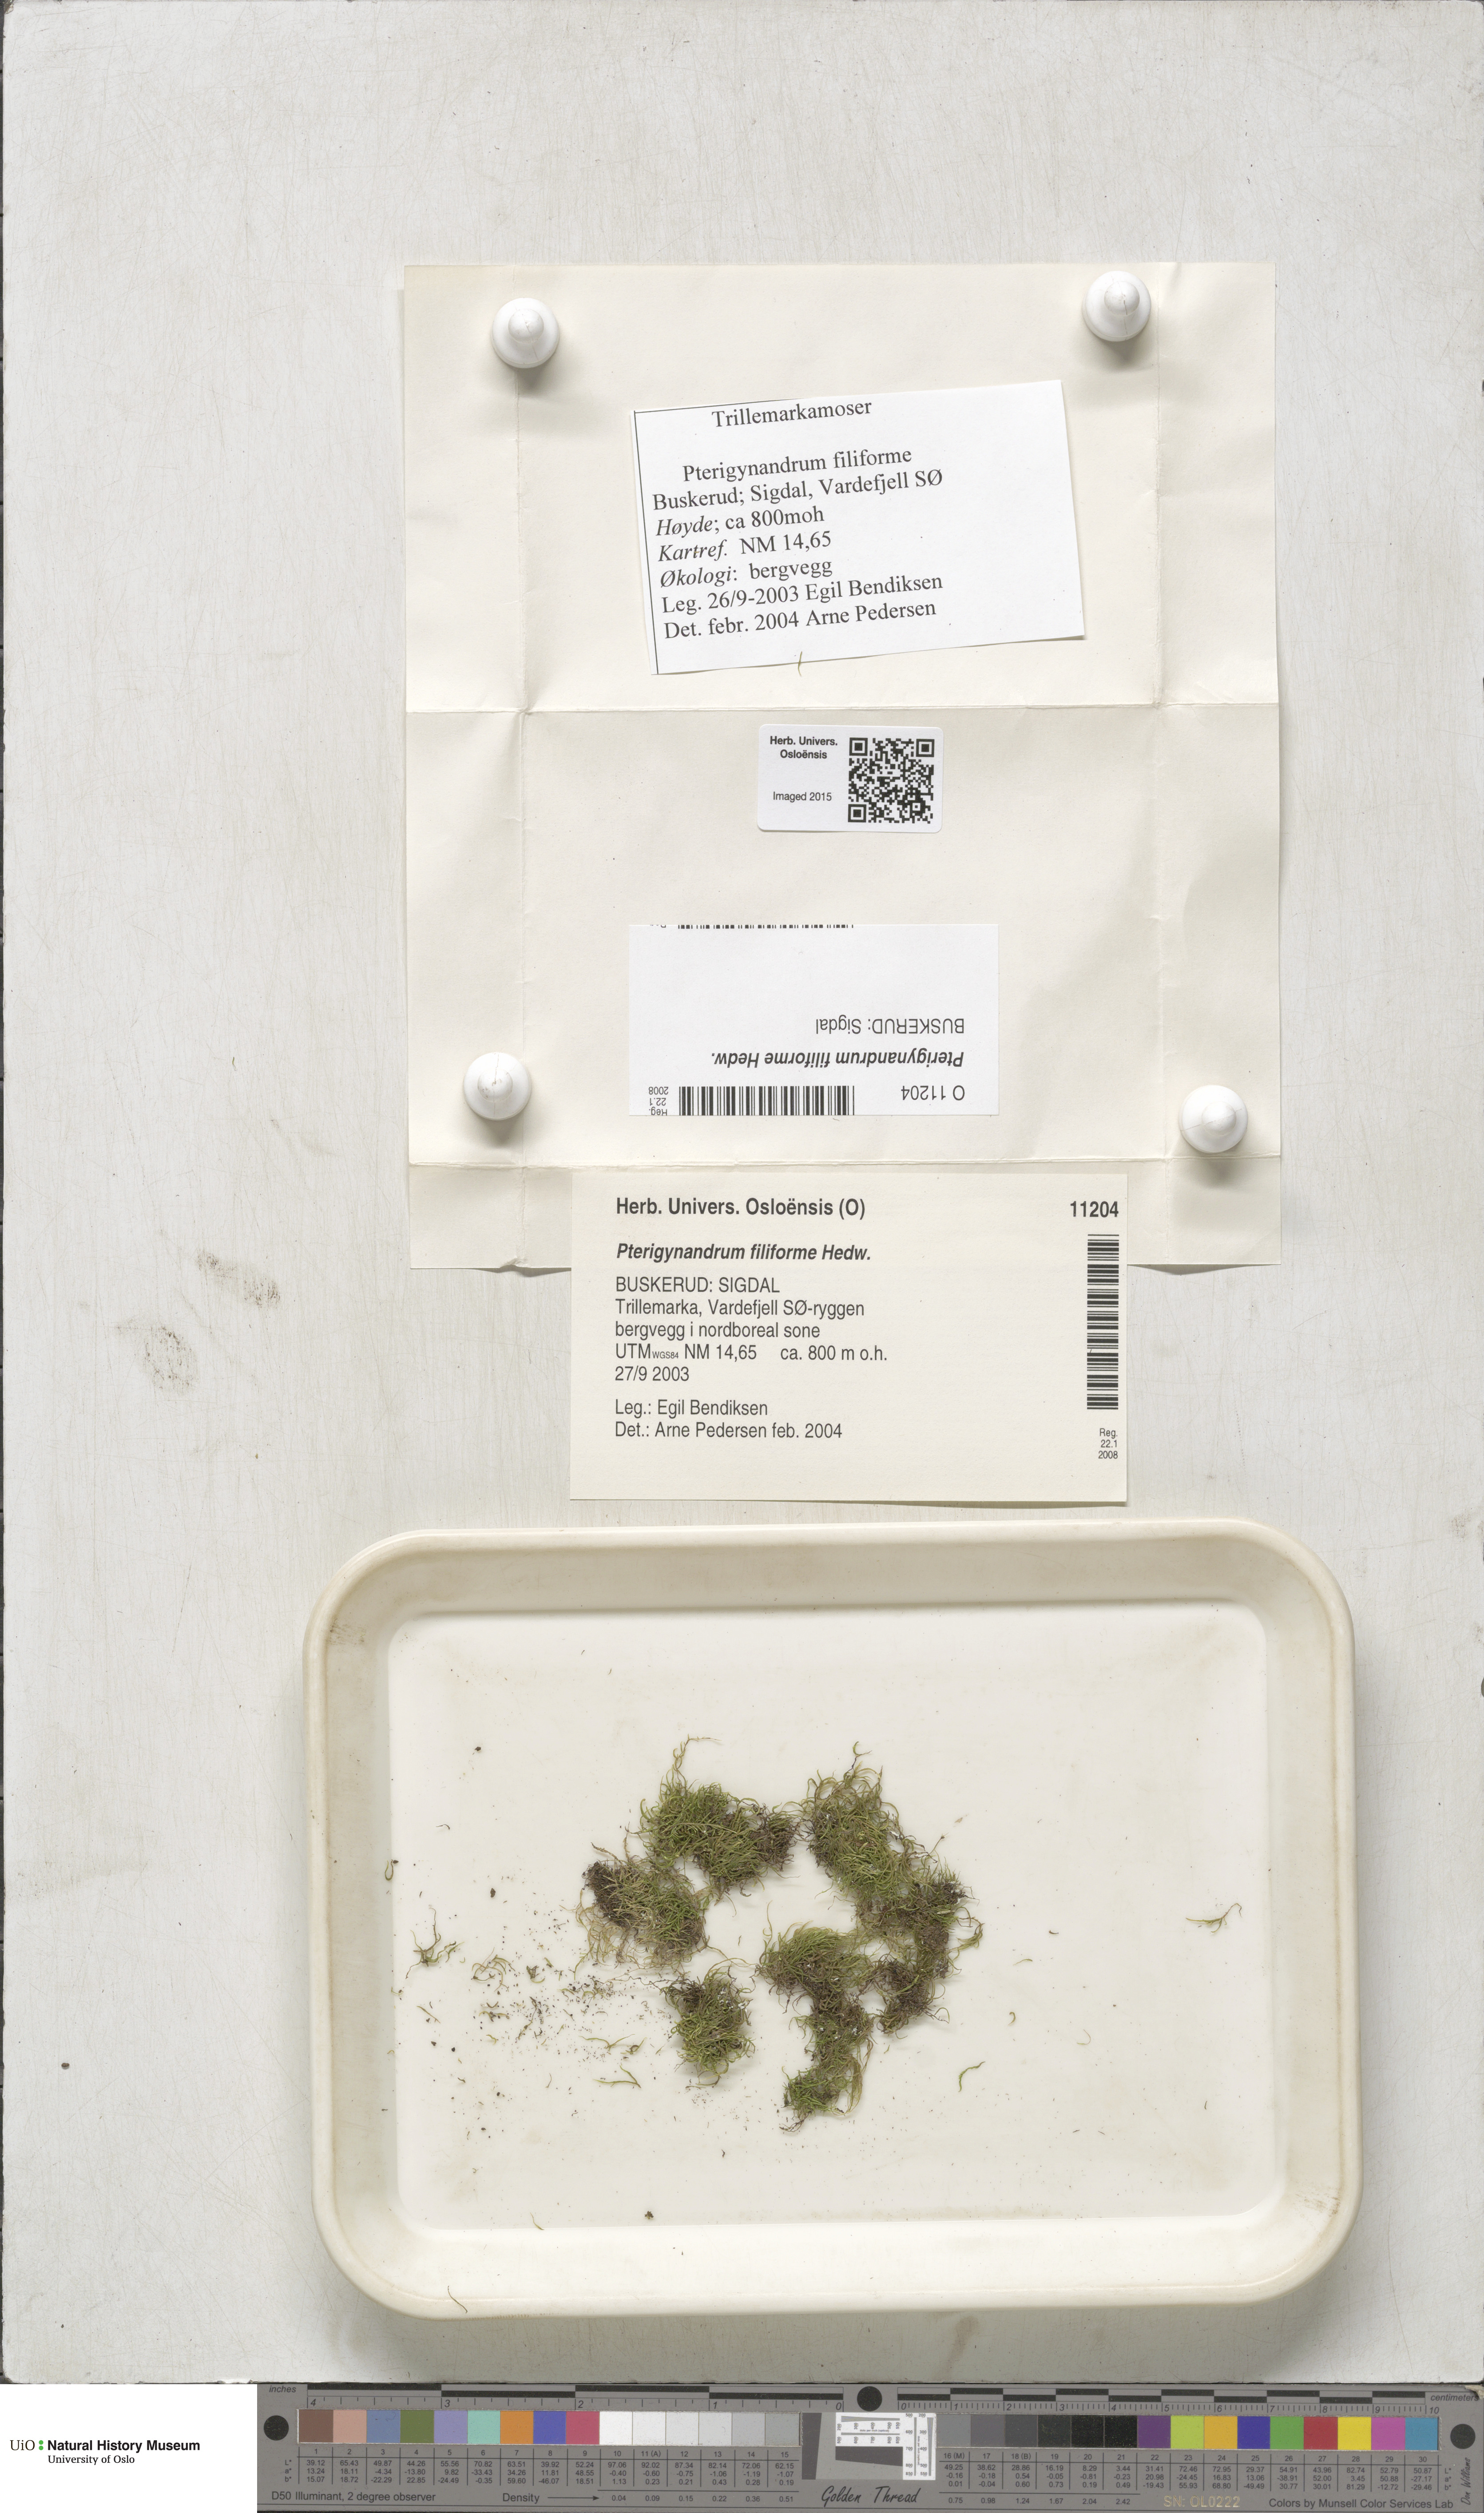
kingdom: Plantae
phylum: Bryophyta
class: Bryopsida
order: Hypnales
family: Pterigynandraceae
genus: Pterigynandrum
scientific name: Pterigynandrum filiforme
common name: Capillary wing moss
